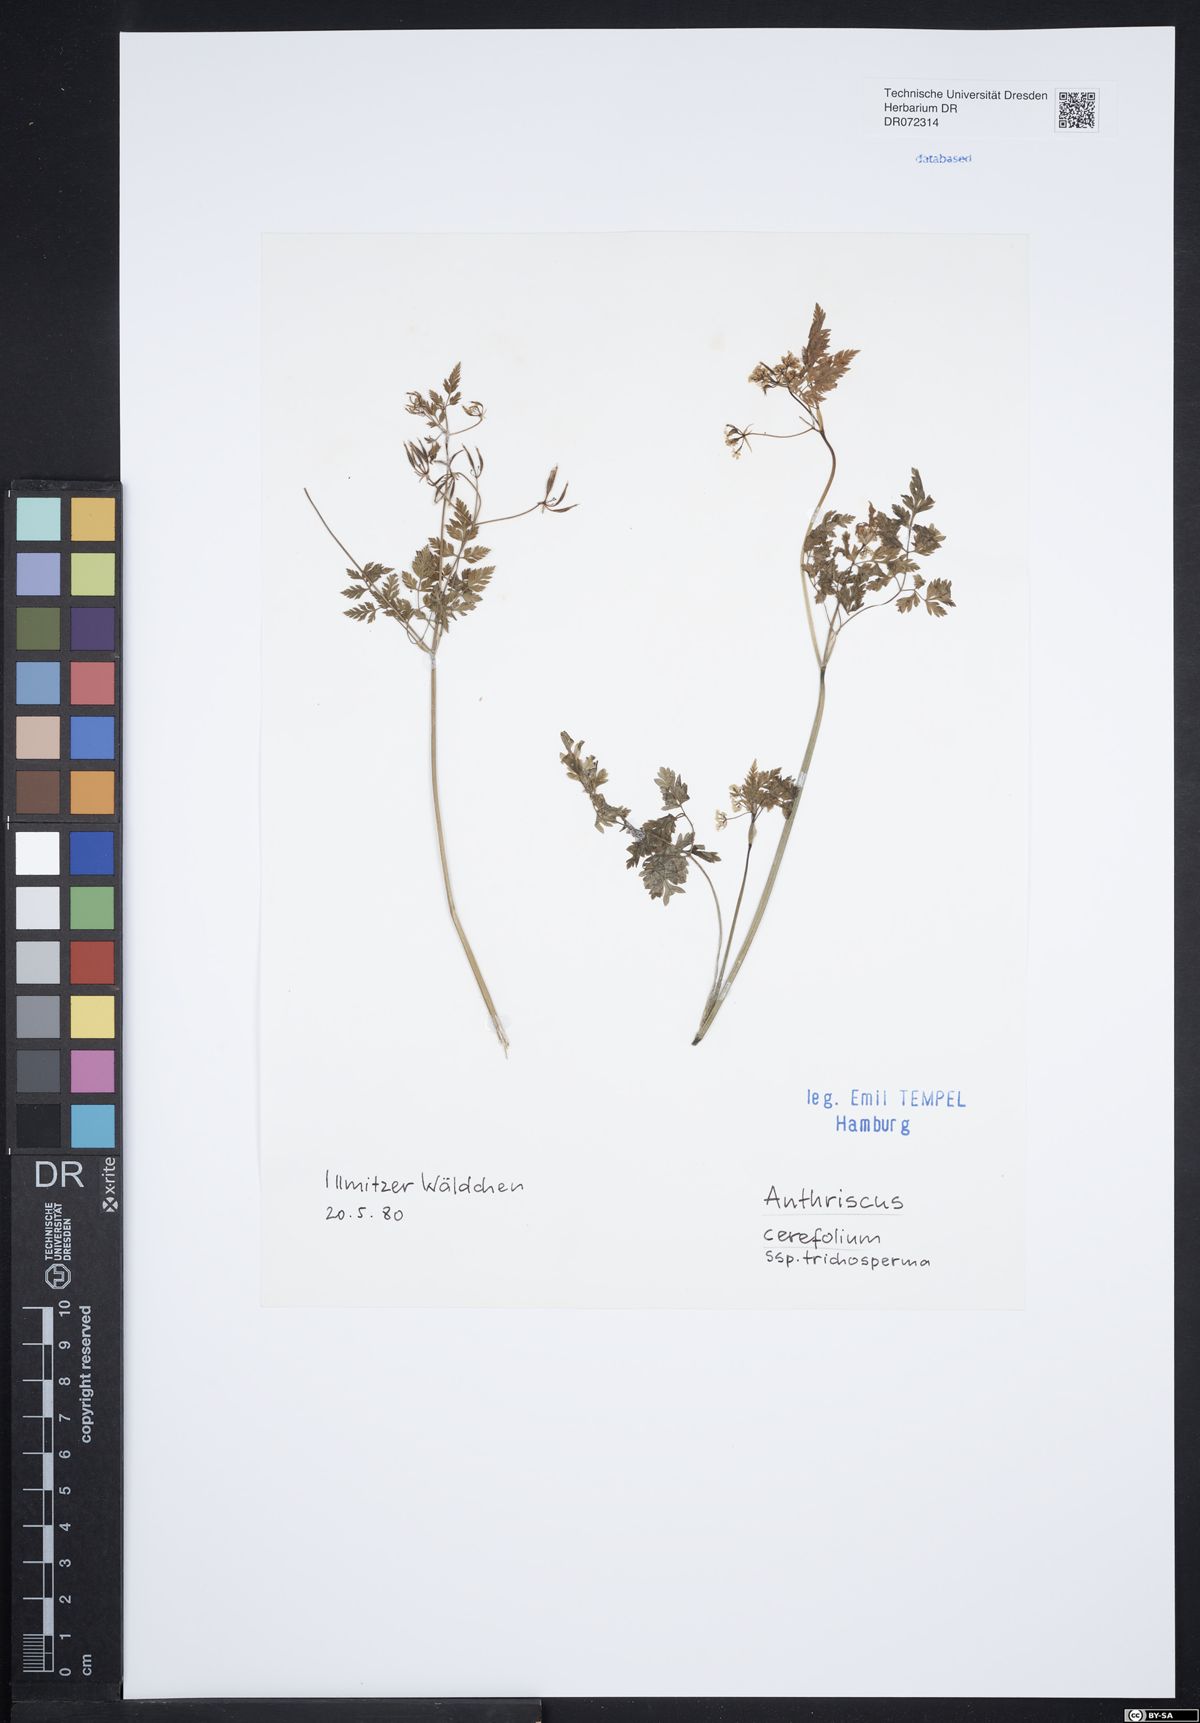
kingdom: Plantae
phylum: Tracheophyta
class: Magnoliopsida
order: Apiales
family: Apiaceae
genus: Anthriscus
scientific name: Anthriscus cerefolium
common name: Garden chervil
